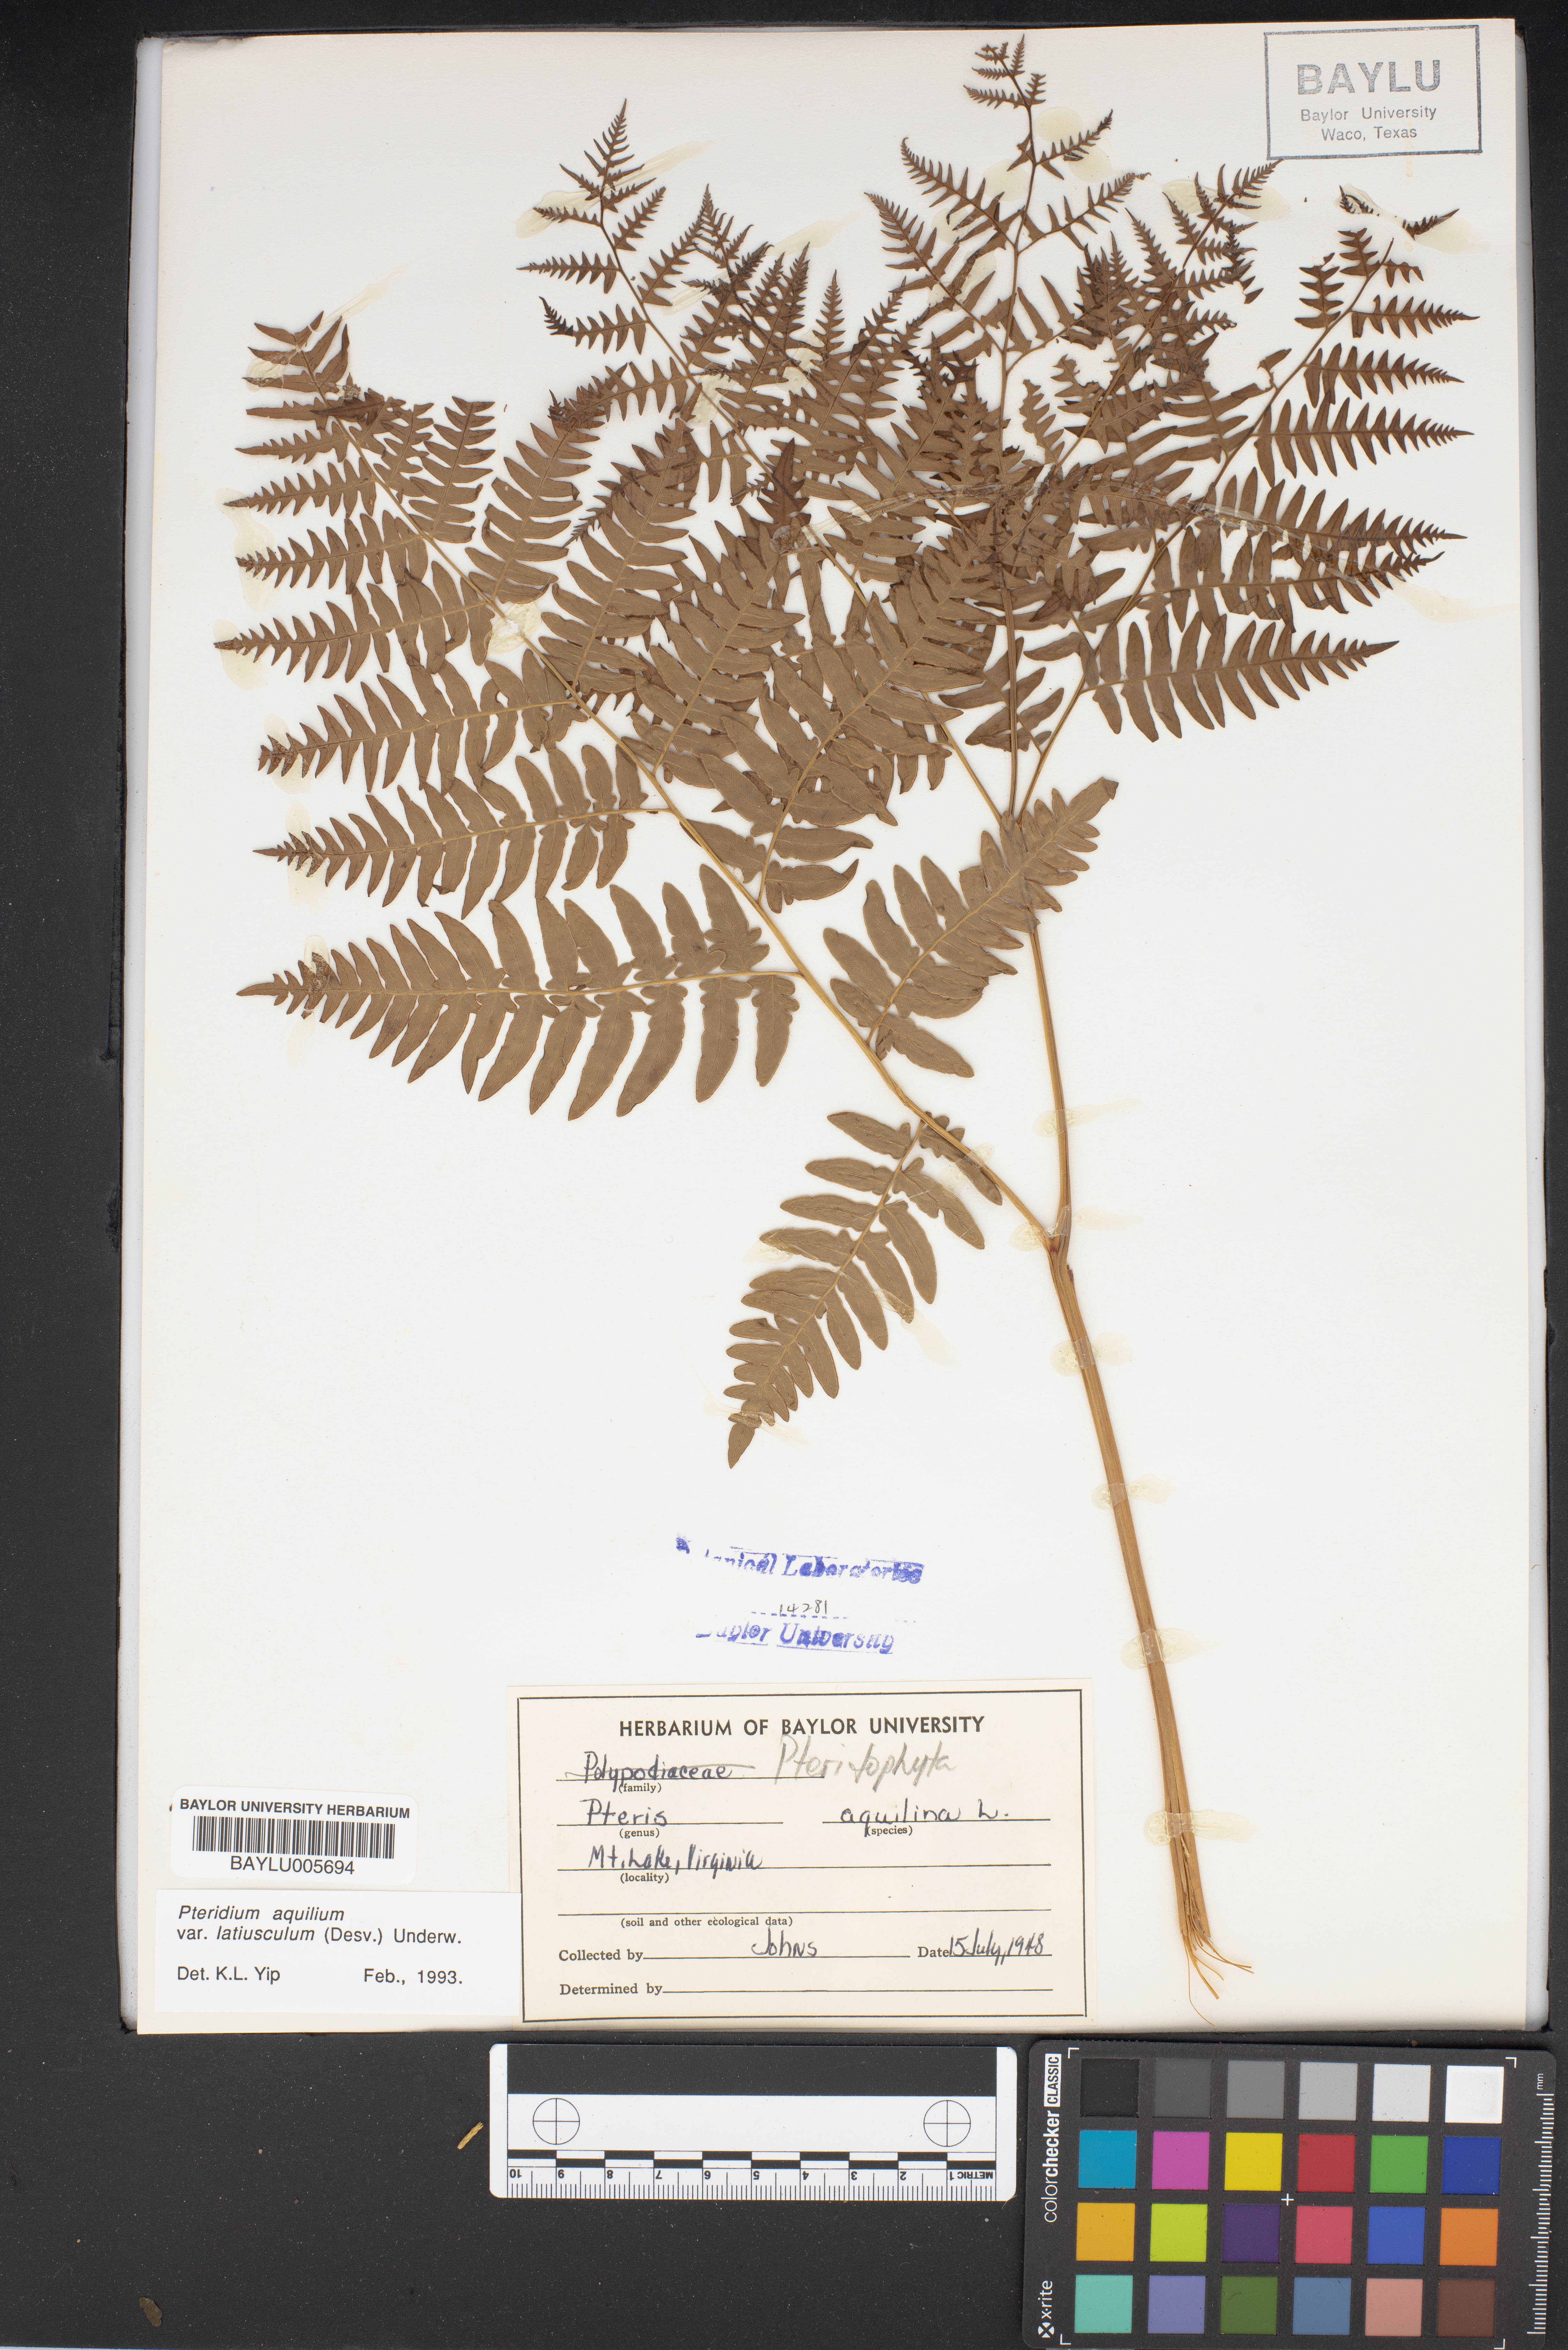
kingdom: Plantae
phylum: Tracheophyta
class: Polypodiopsida
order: Polypodiales
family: Dennstaedtiaceae
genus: Pteridium
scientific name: Pteridium aquilinum
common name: Bracken
